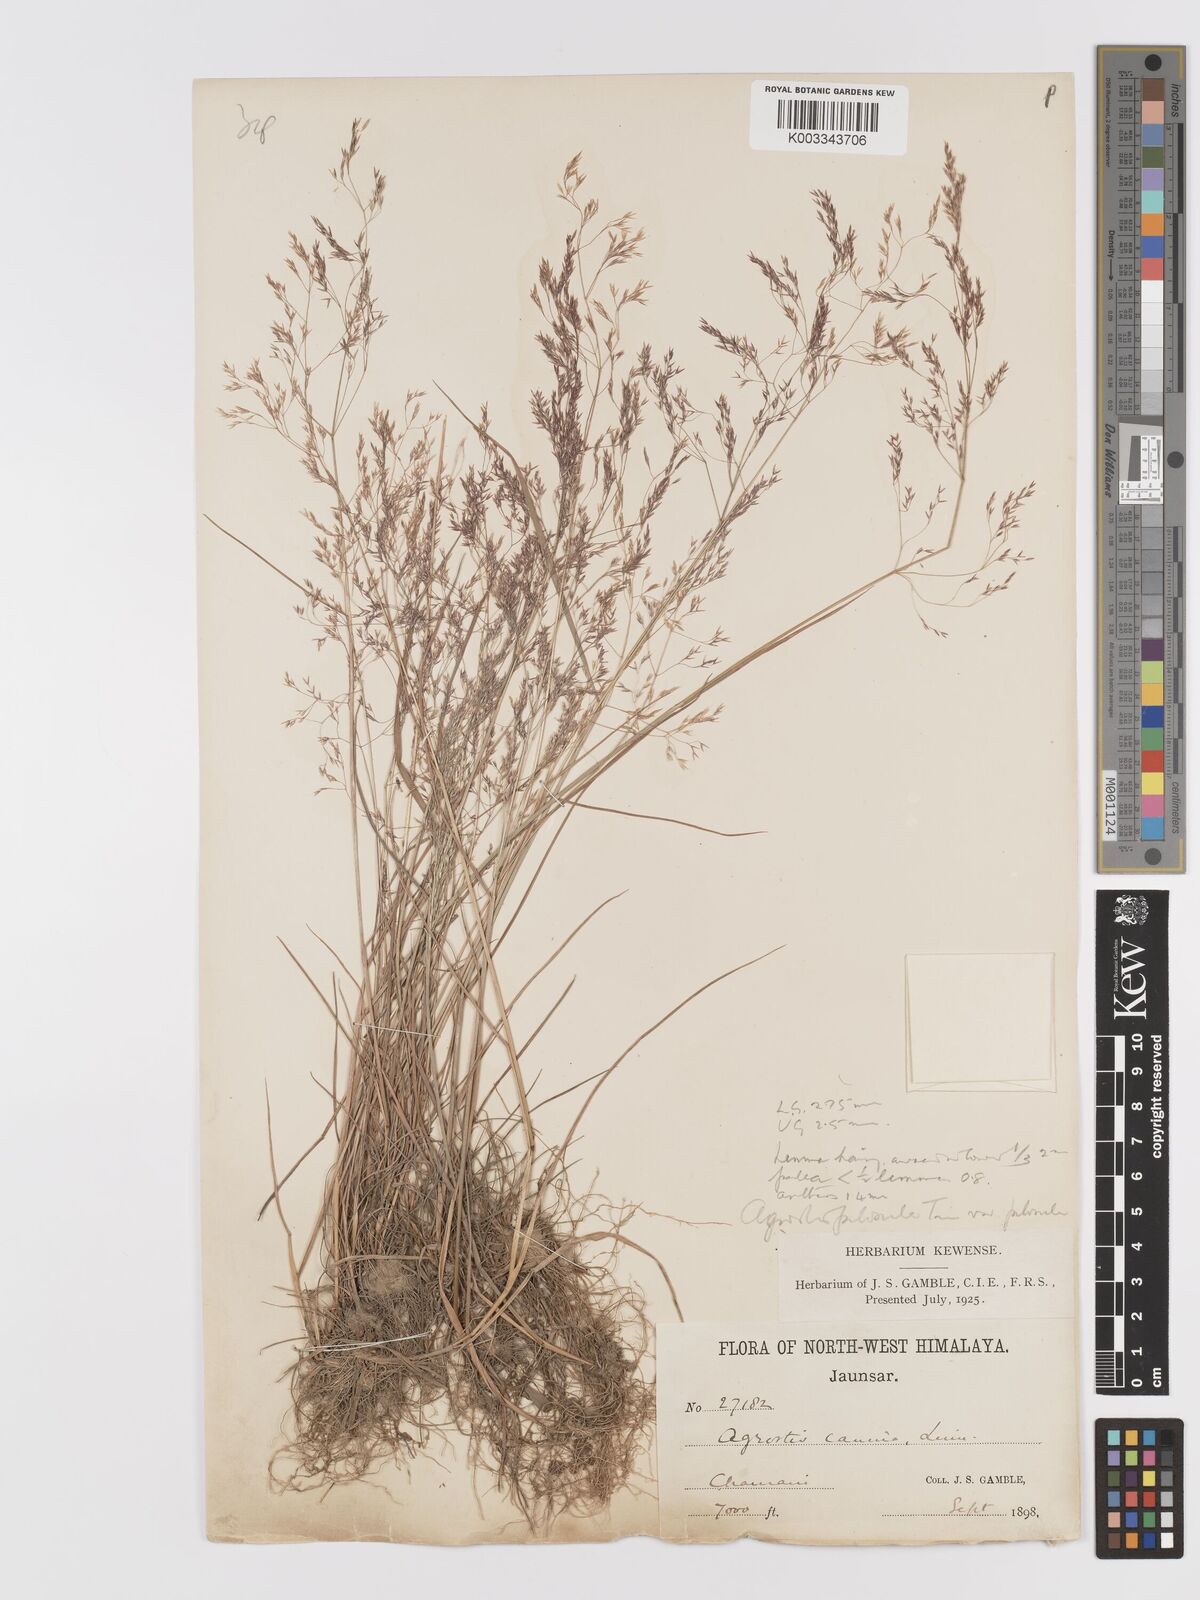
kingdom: Plantae
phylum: Tracheophyta
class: Liliopsida
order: Poales
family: Poaceae
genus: Agrostis
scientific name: Agrostis pilosula
